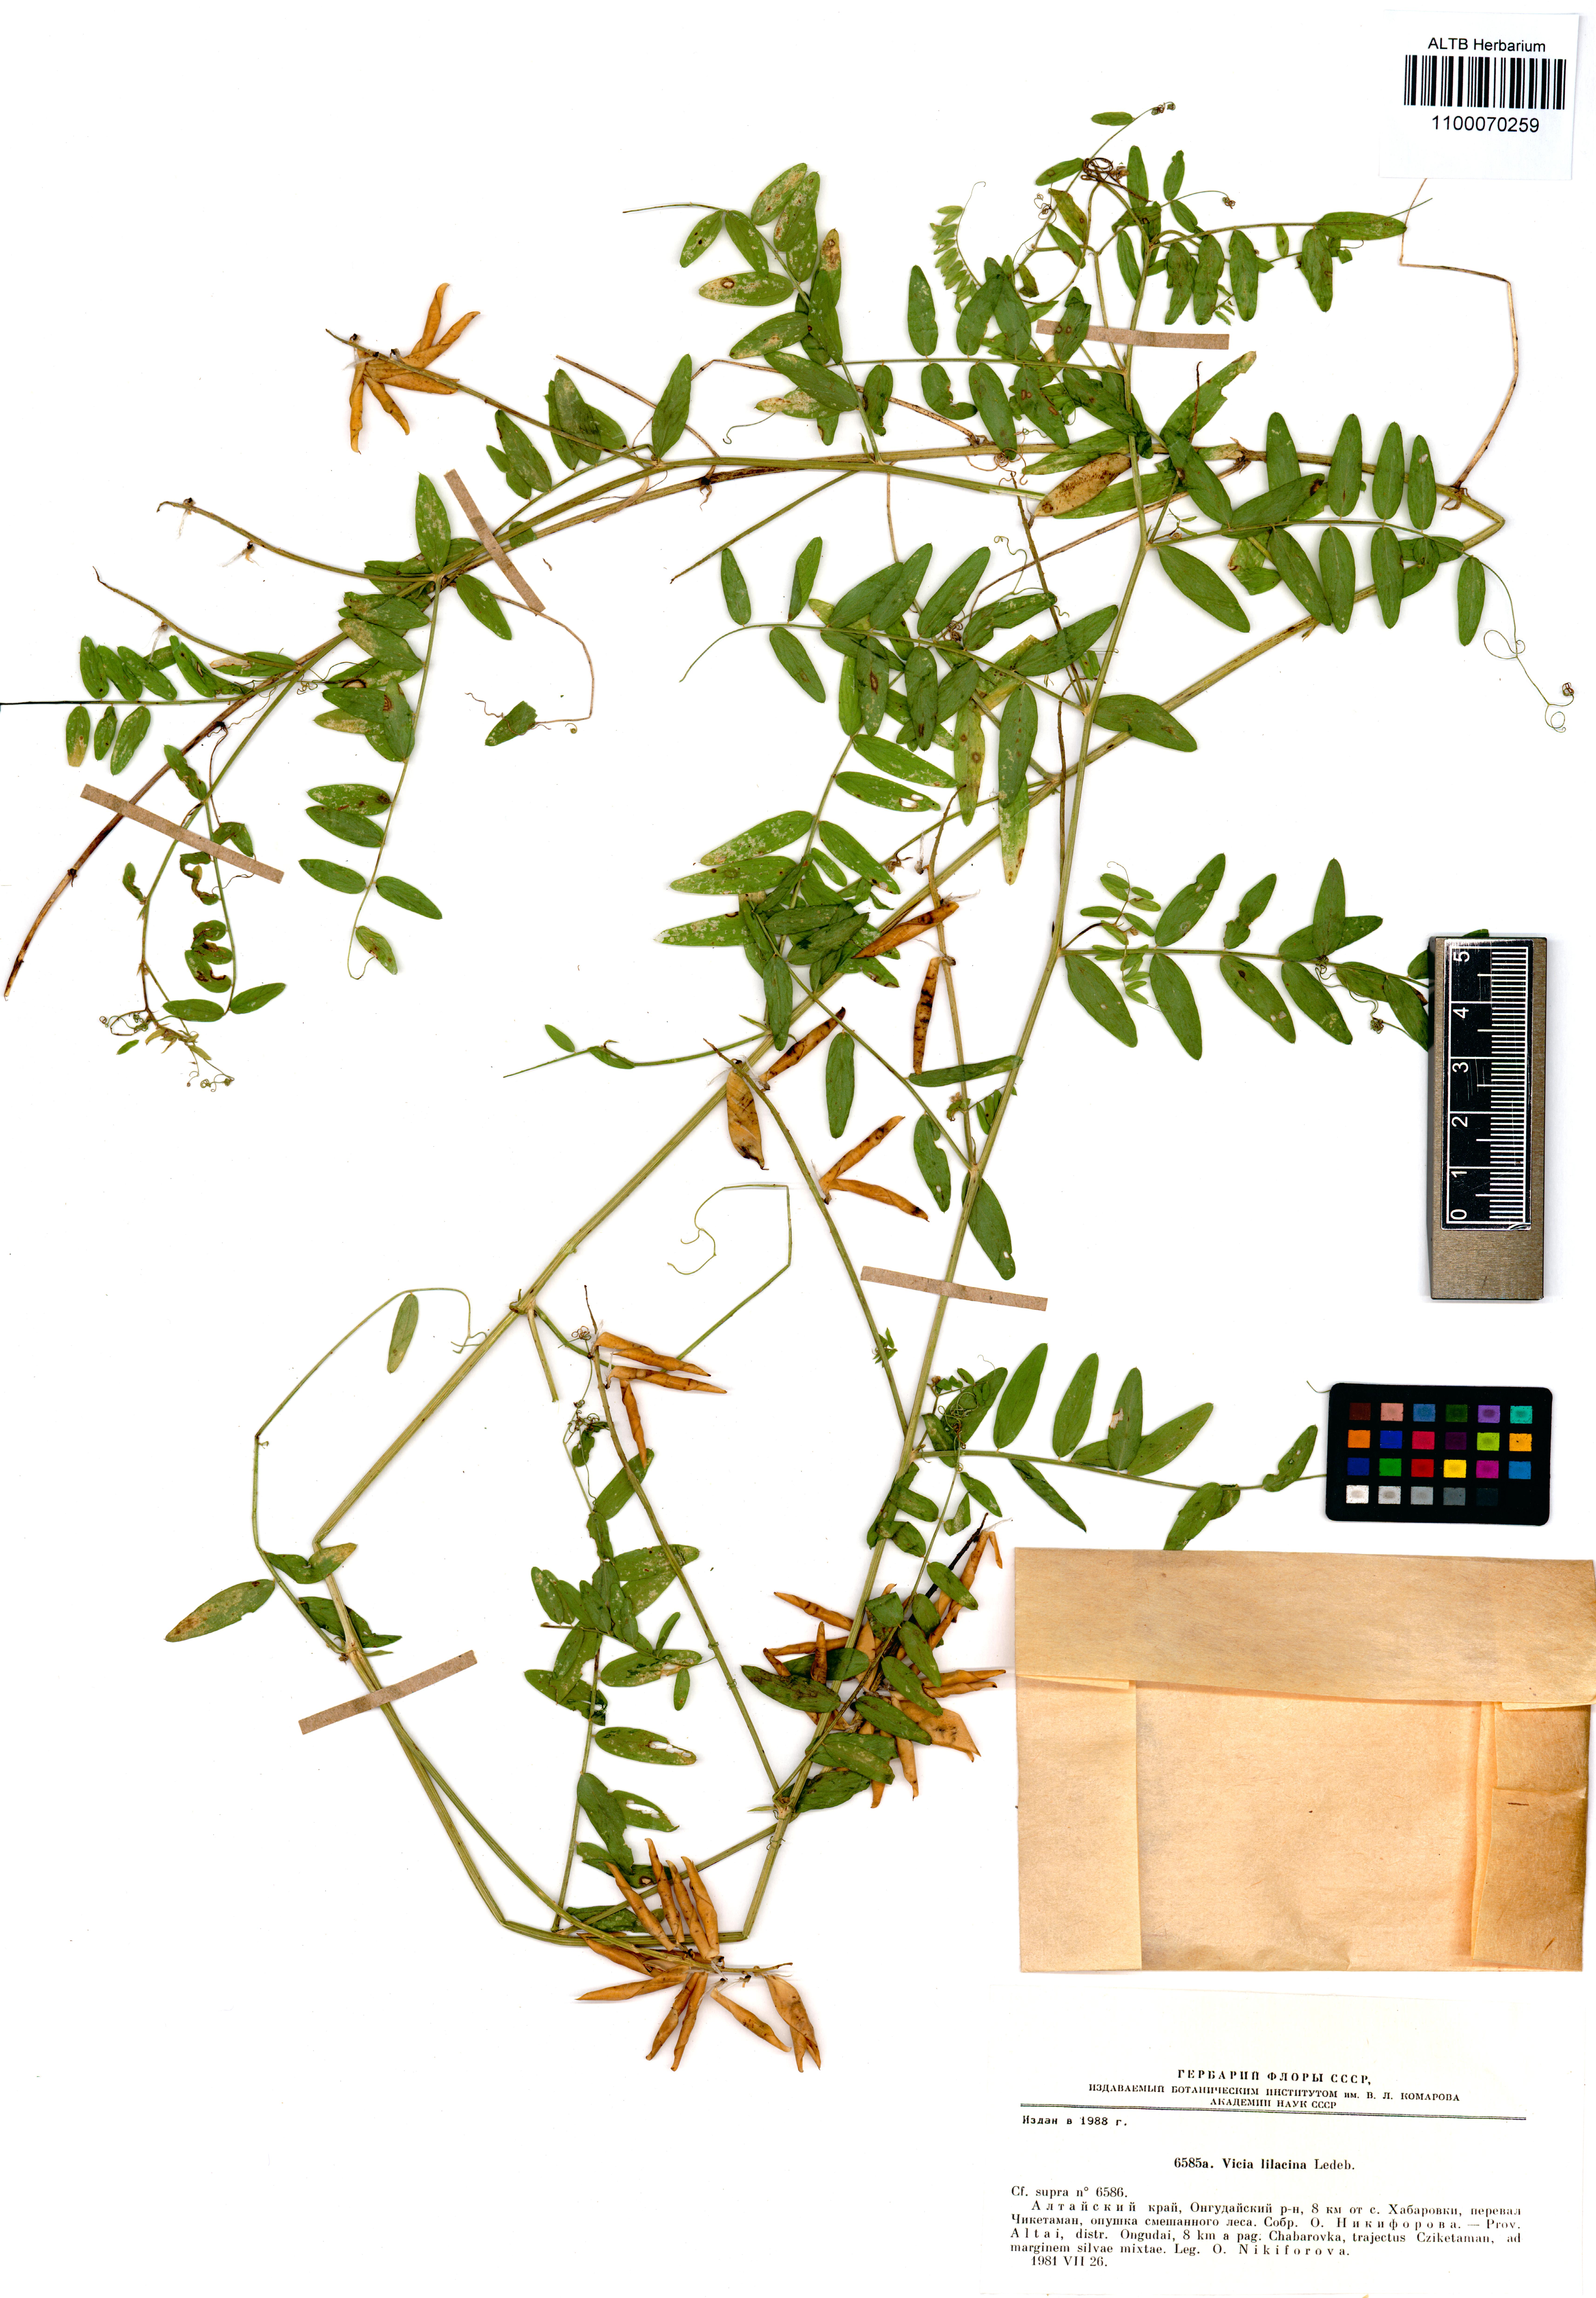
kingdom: Plantae
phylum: Tracheophyta
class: Magnoliopsida
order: Fabales
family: Fabaceae
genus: Vicia
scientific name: Vicia lilacina
